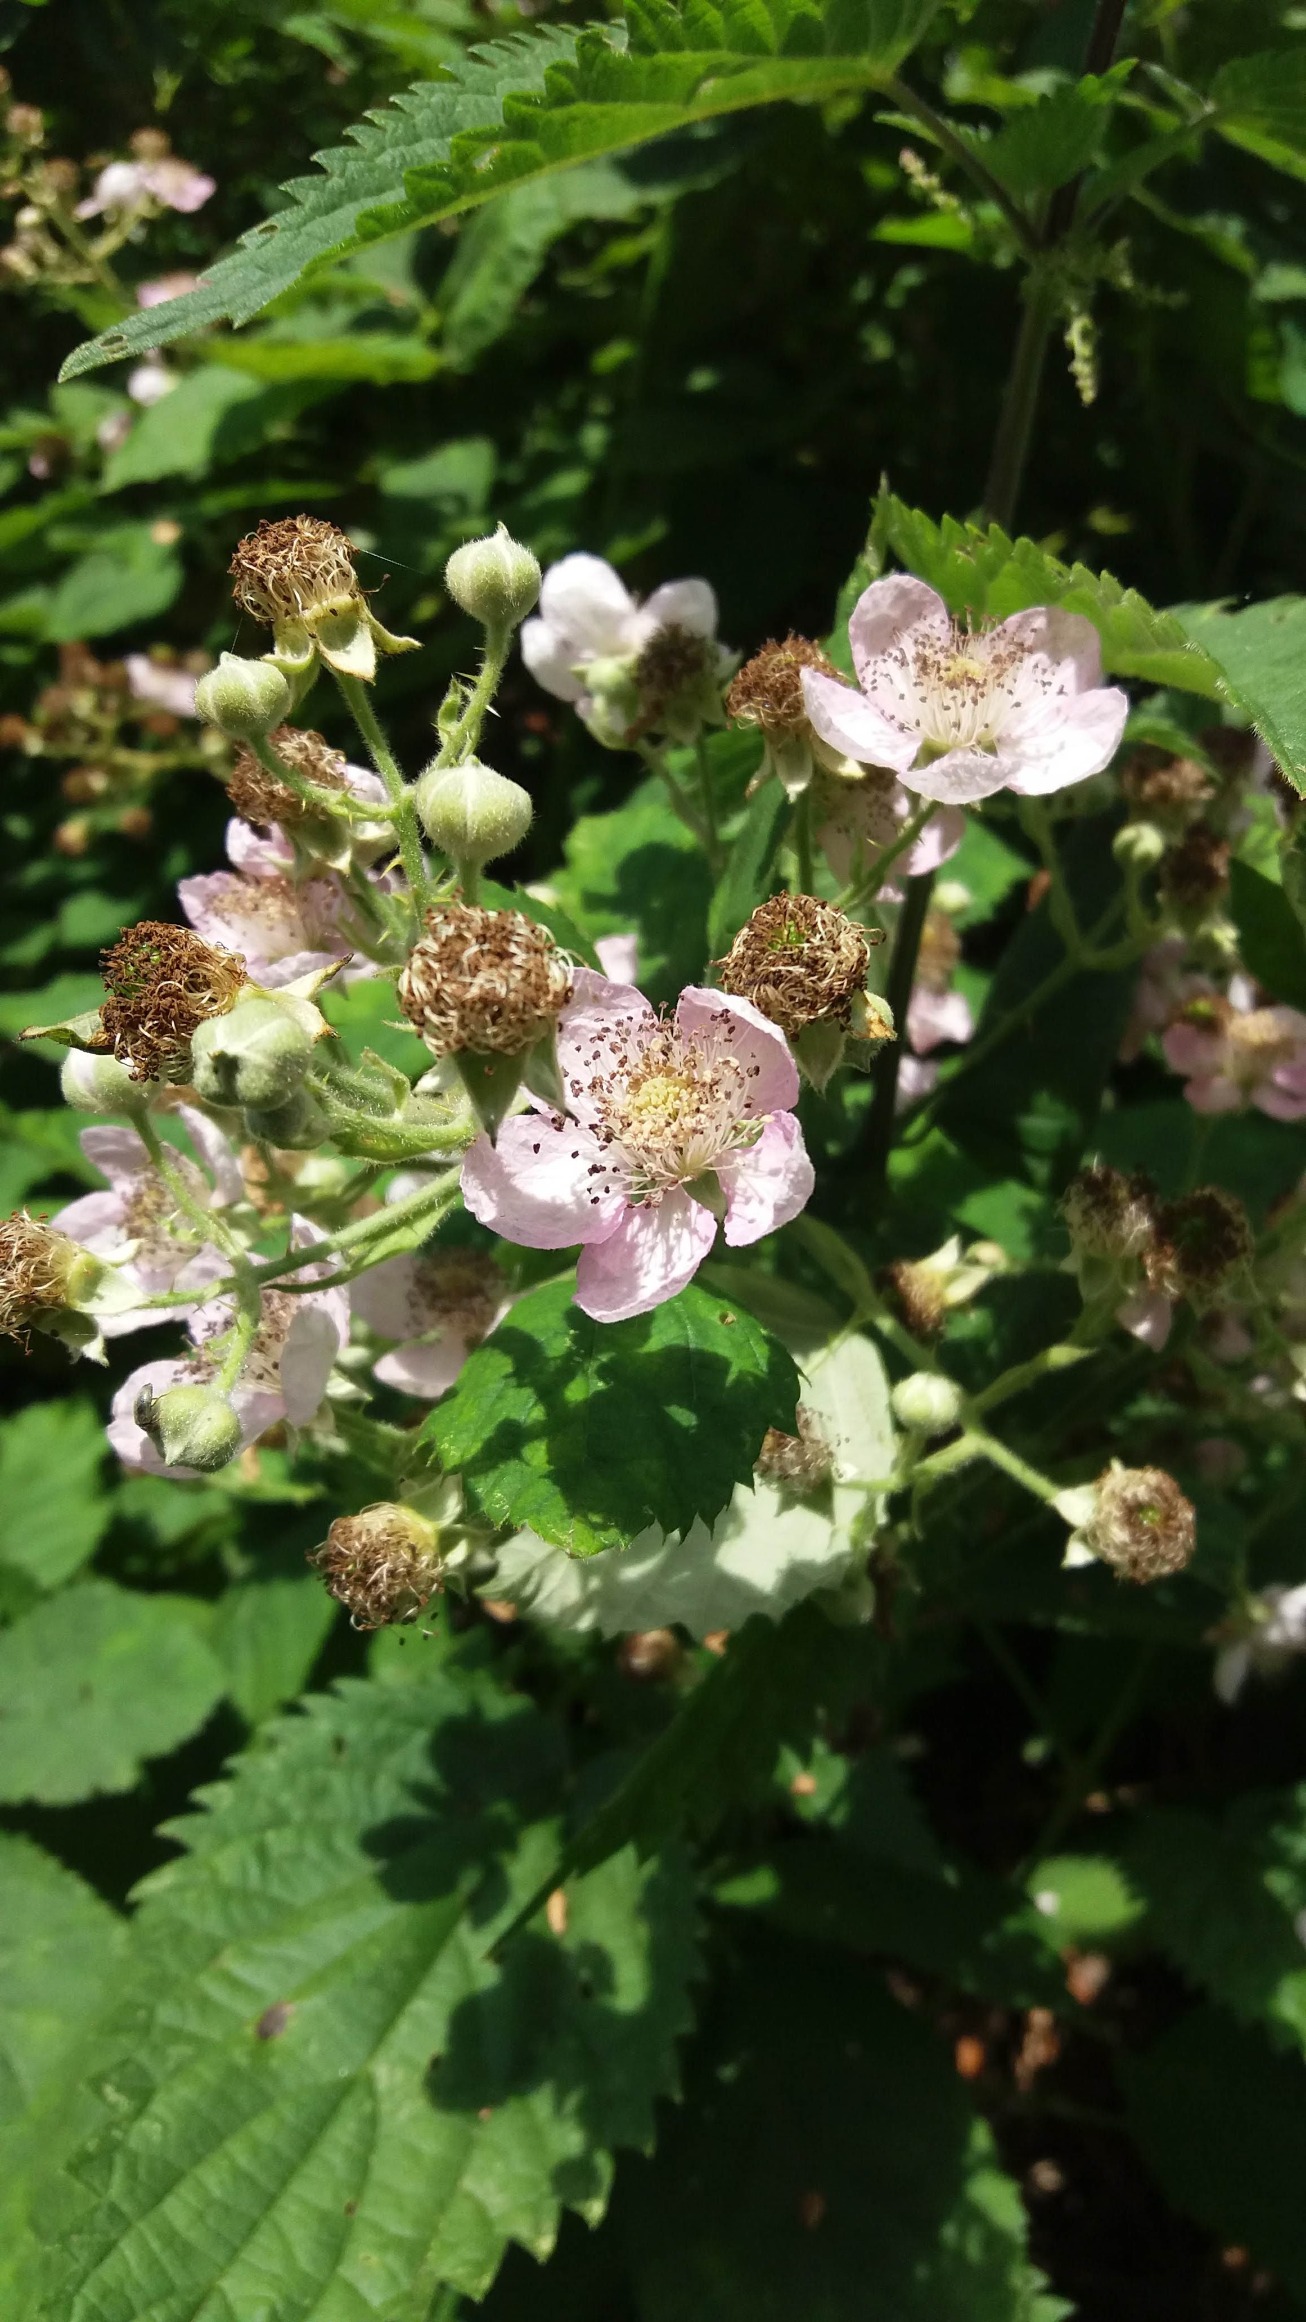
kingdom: Plantae
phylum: Tracheophyta
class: Magnoliopsida
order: Rosales
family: Rosaceae
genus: Rubus
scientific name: Rubus armeniacus
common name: Armensk brombær
